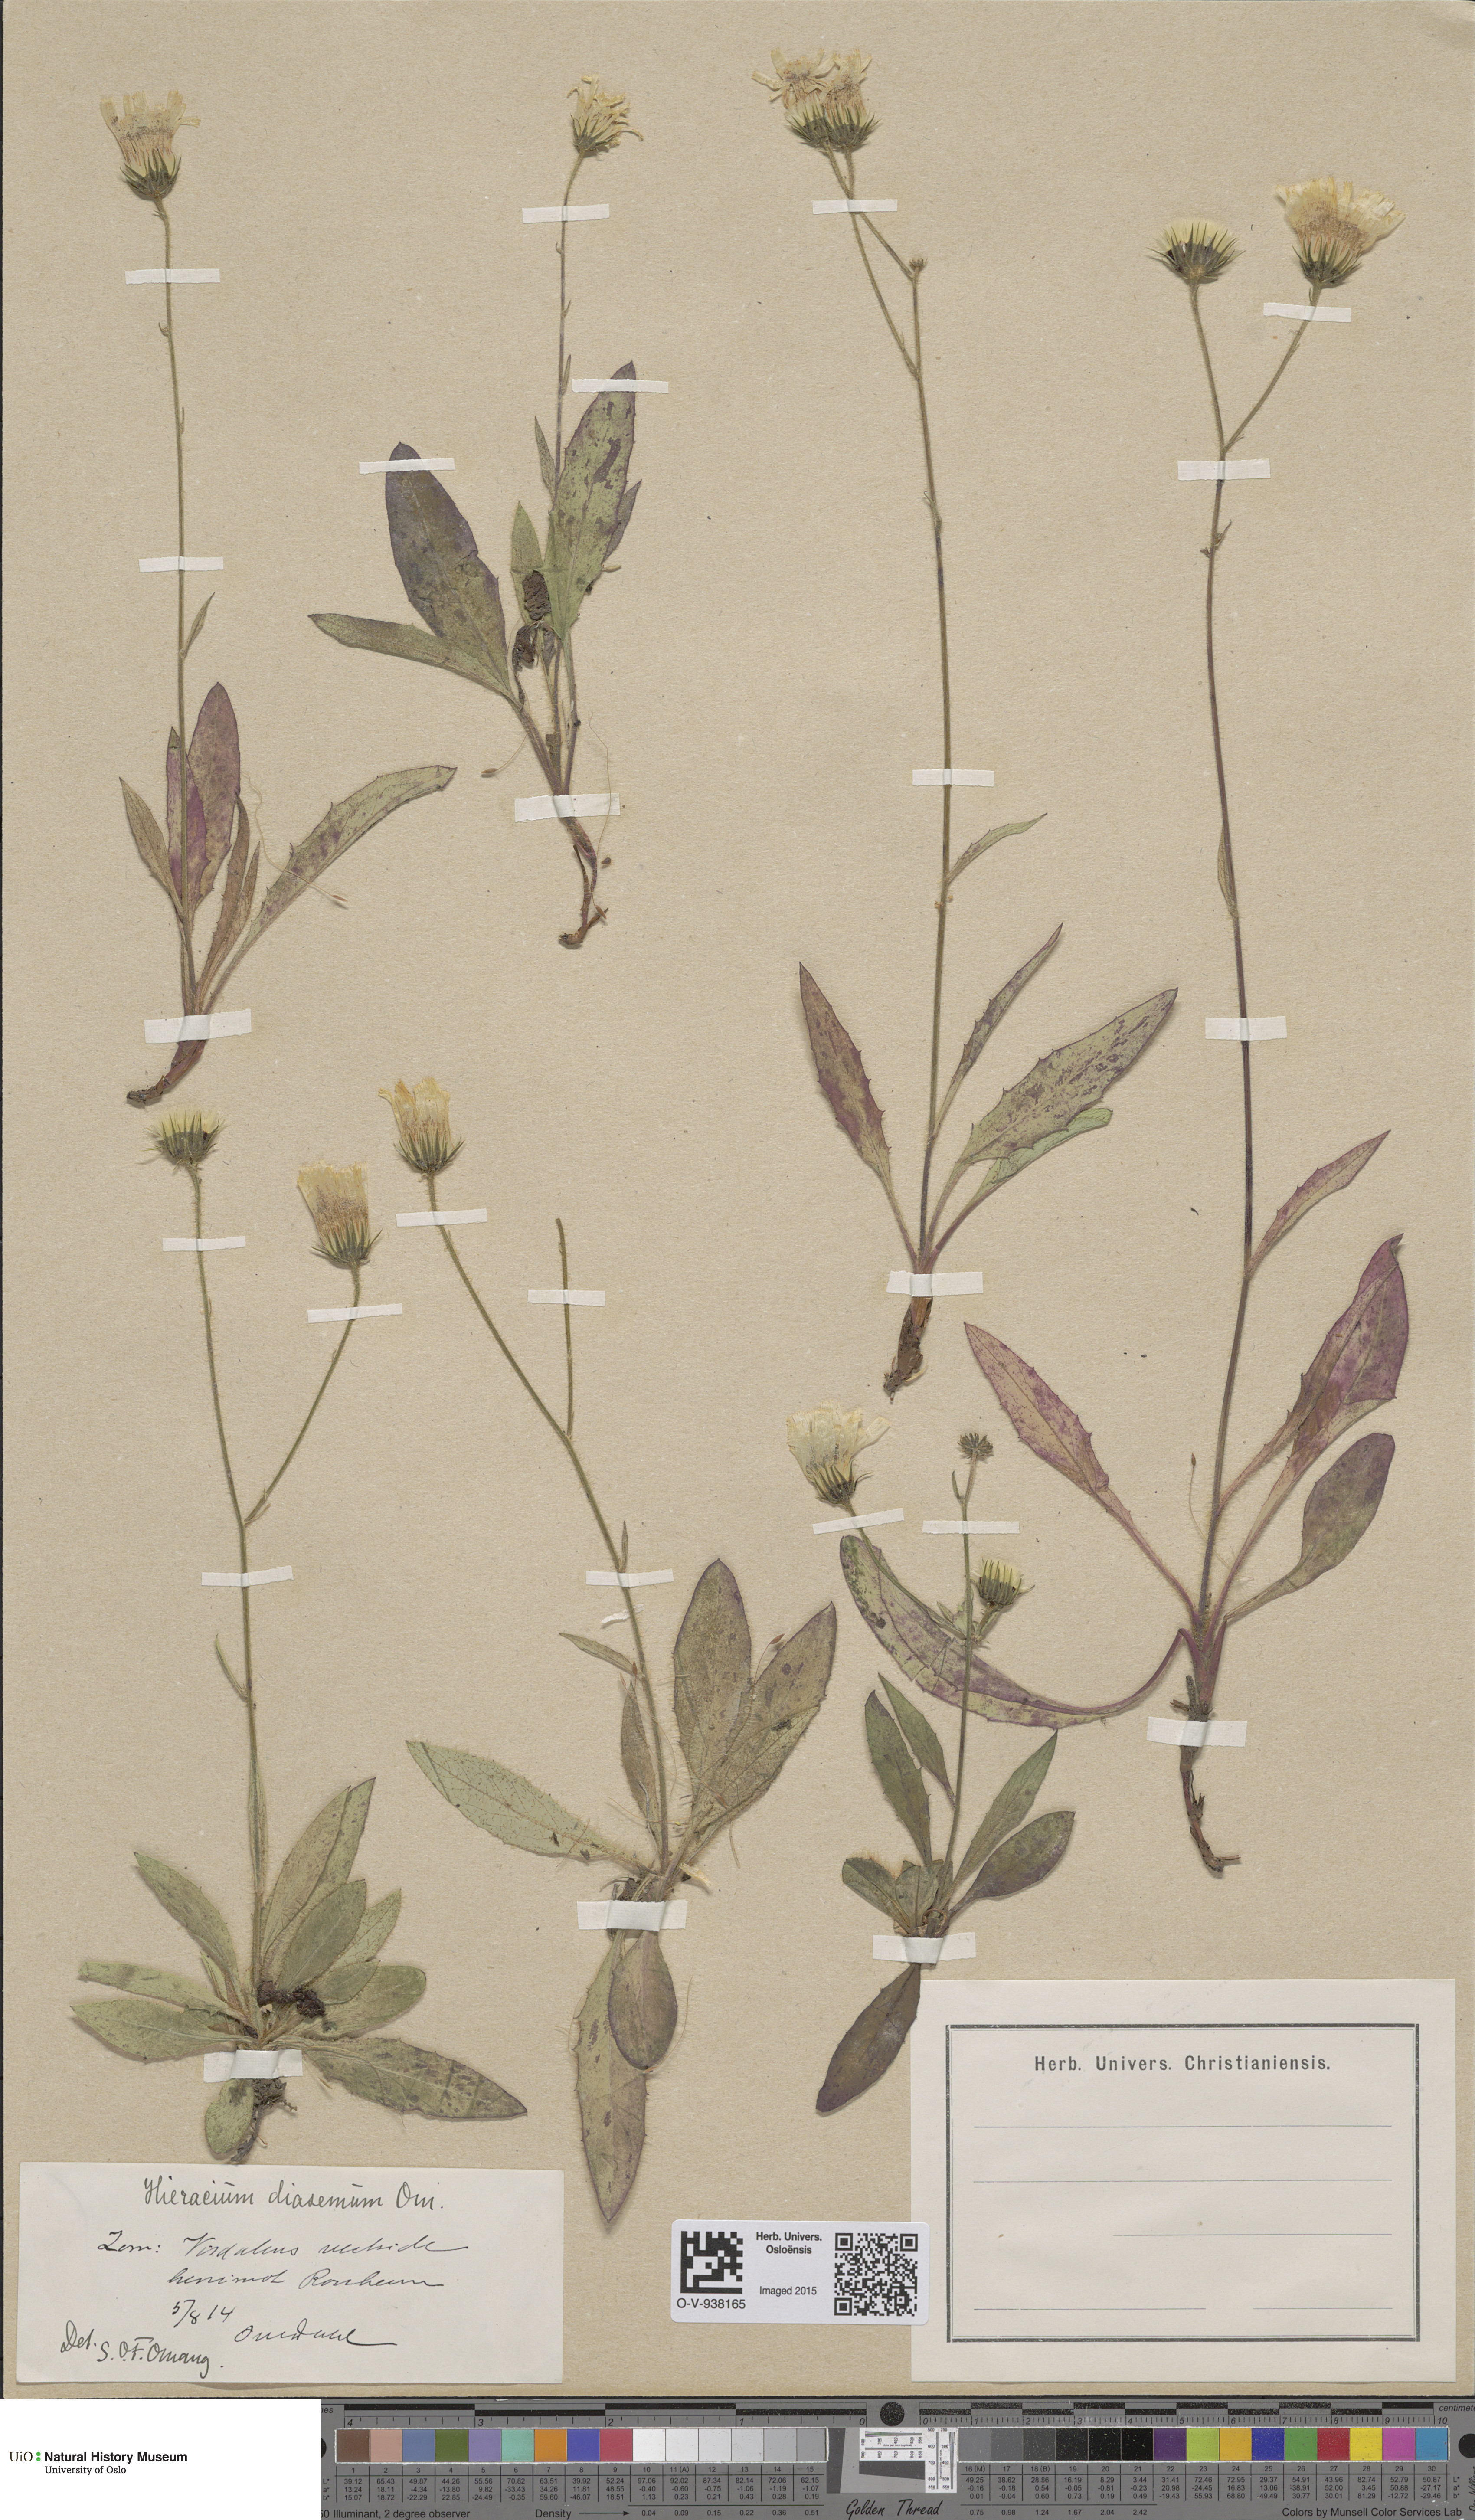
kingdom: Plantae
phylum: Tracheophyta
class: Magnoliopsida
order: Asterales
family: Asteraceae
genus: Hieracium
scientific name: Hieracium saxifragum
